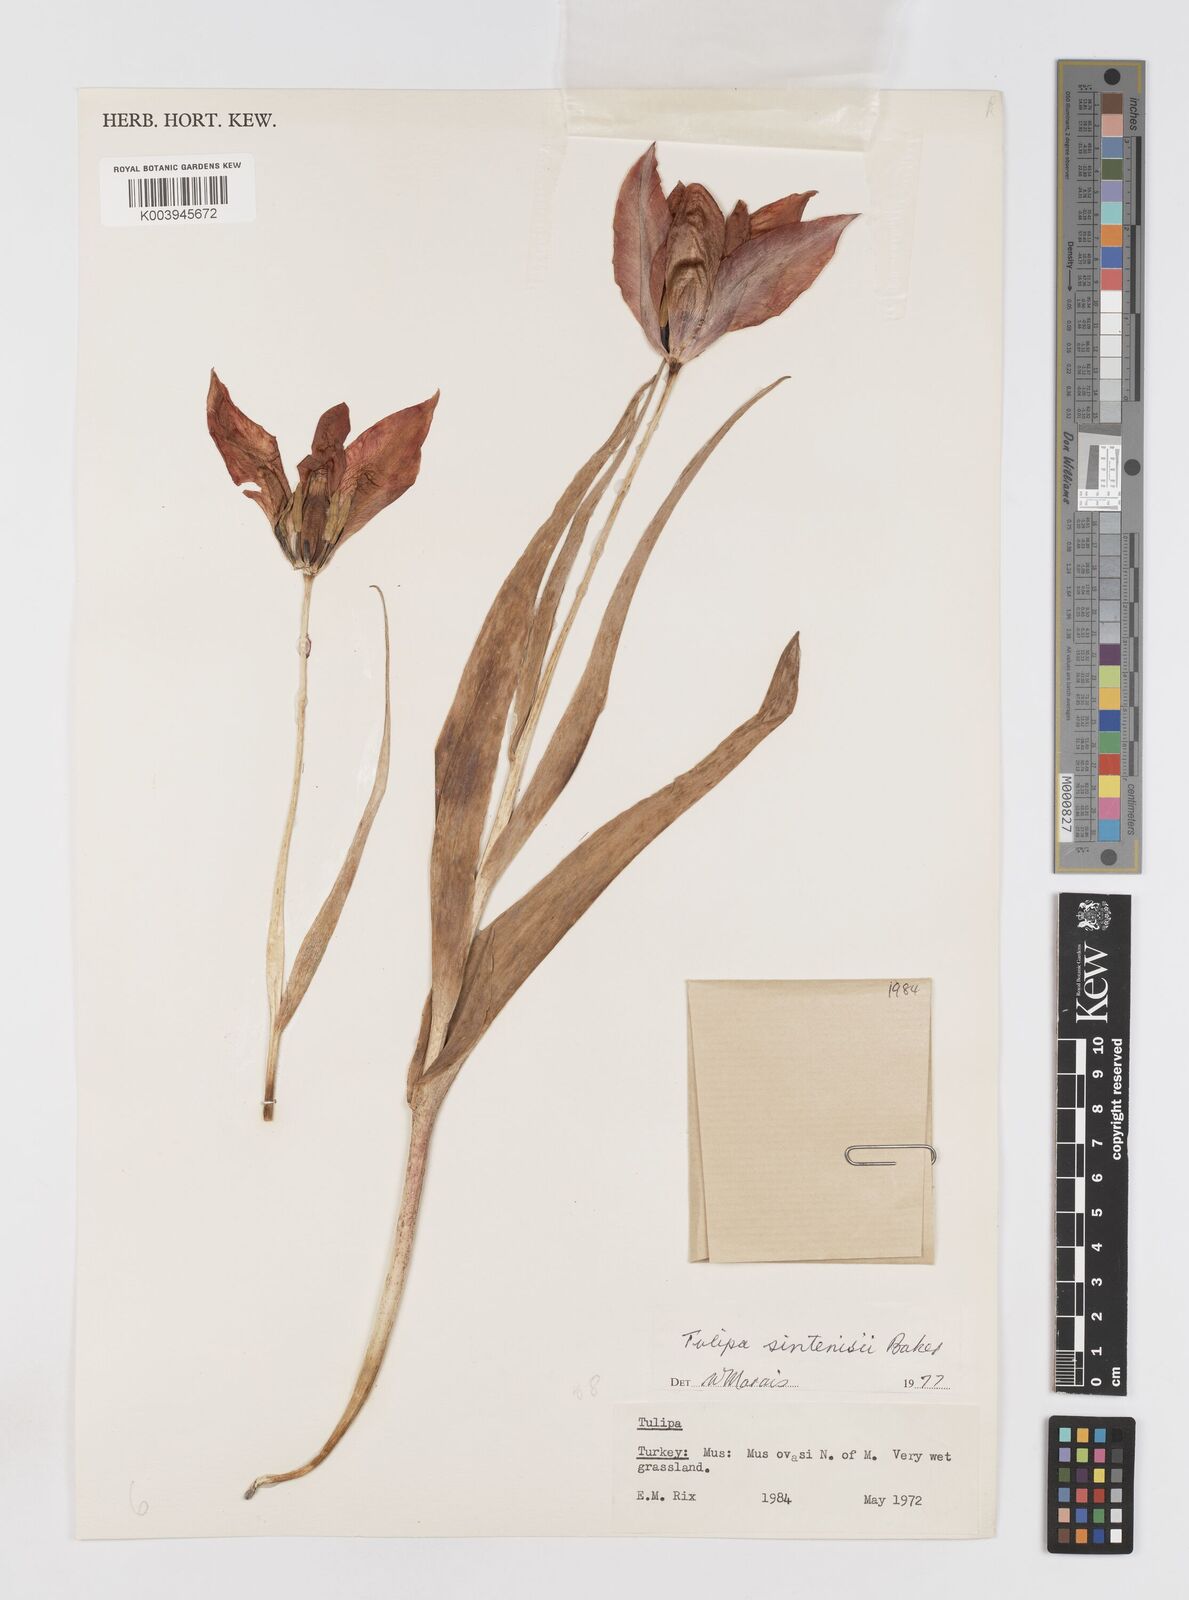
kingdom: Plantae
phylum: Tracheophyta
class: Liliopsida
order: Liliales
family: Liliaceae
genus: Tulipa
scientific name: Tulipa aleppensis
